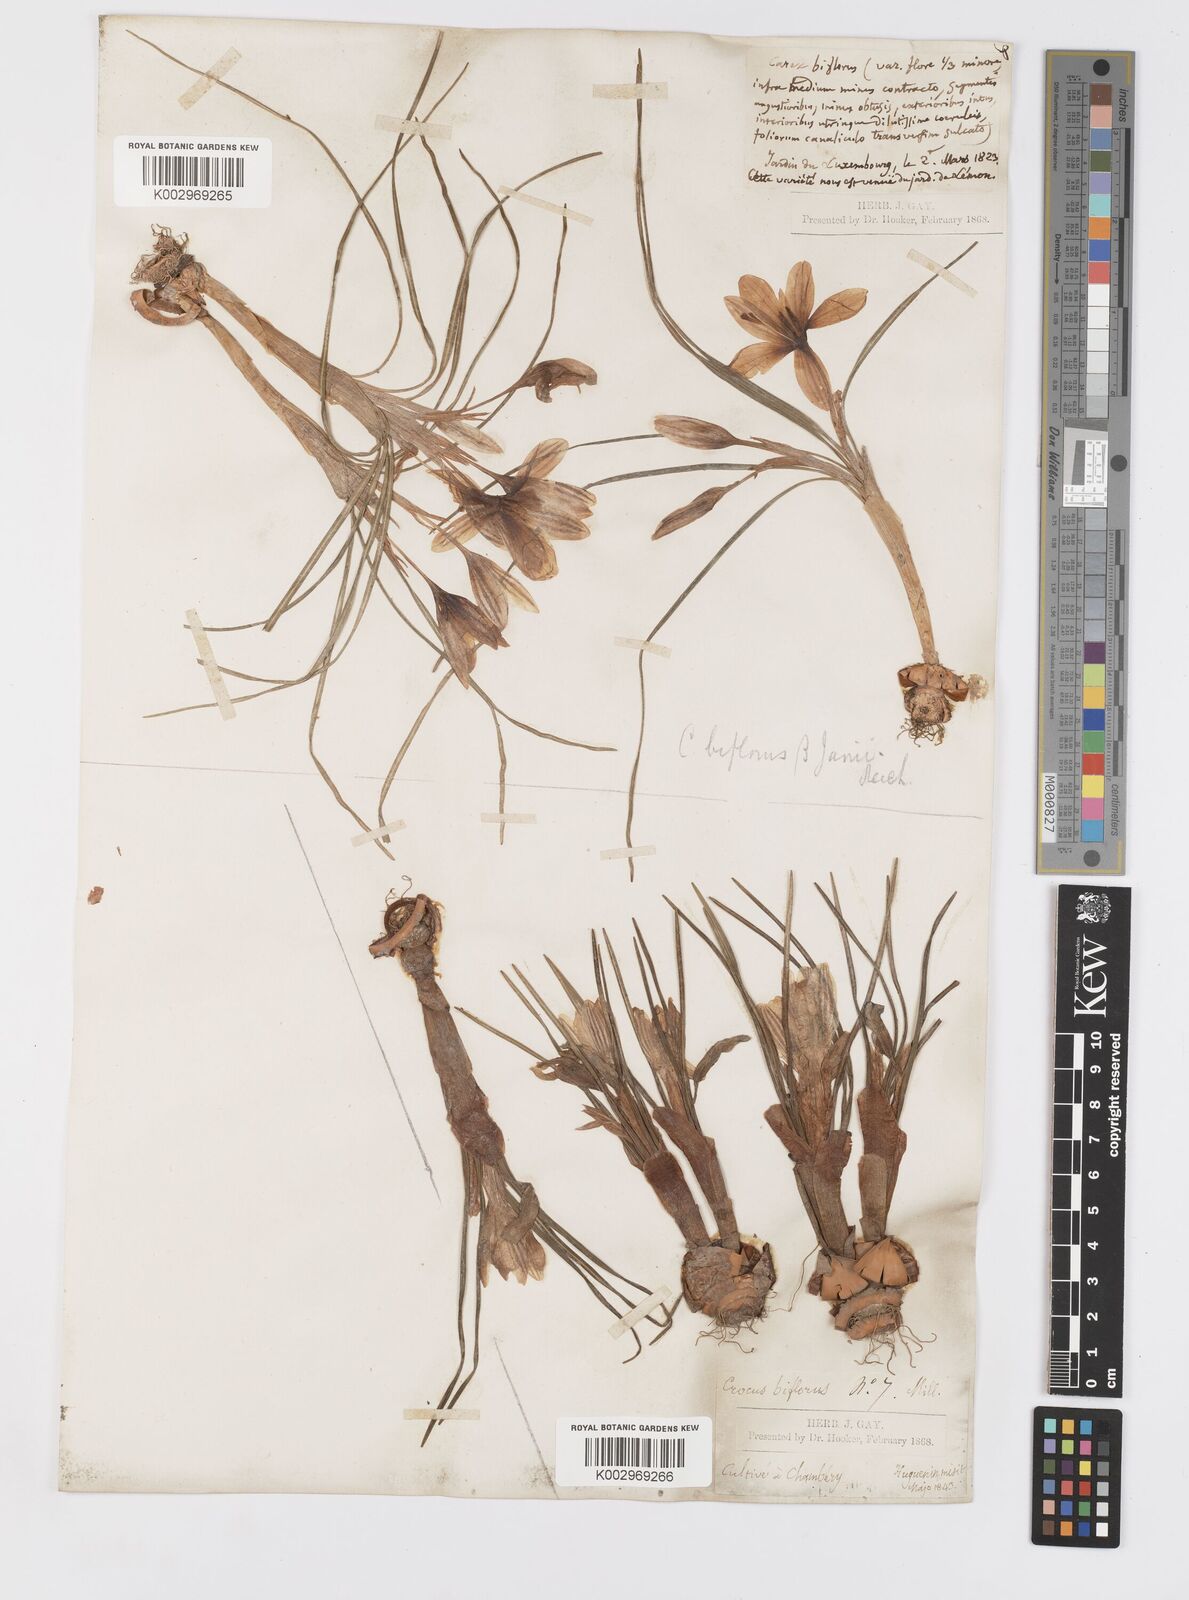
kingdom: Plantae
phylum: Tracheophyta
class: Liliopsida
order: Asparagales
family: Iridaceae
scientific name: Iridaceae
